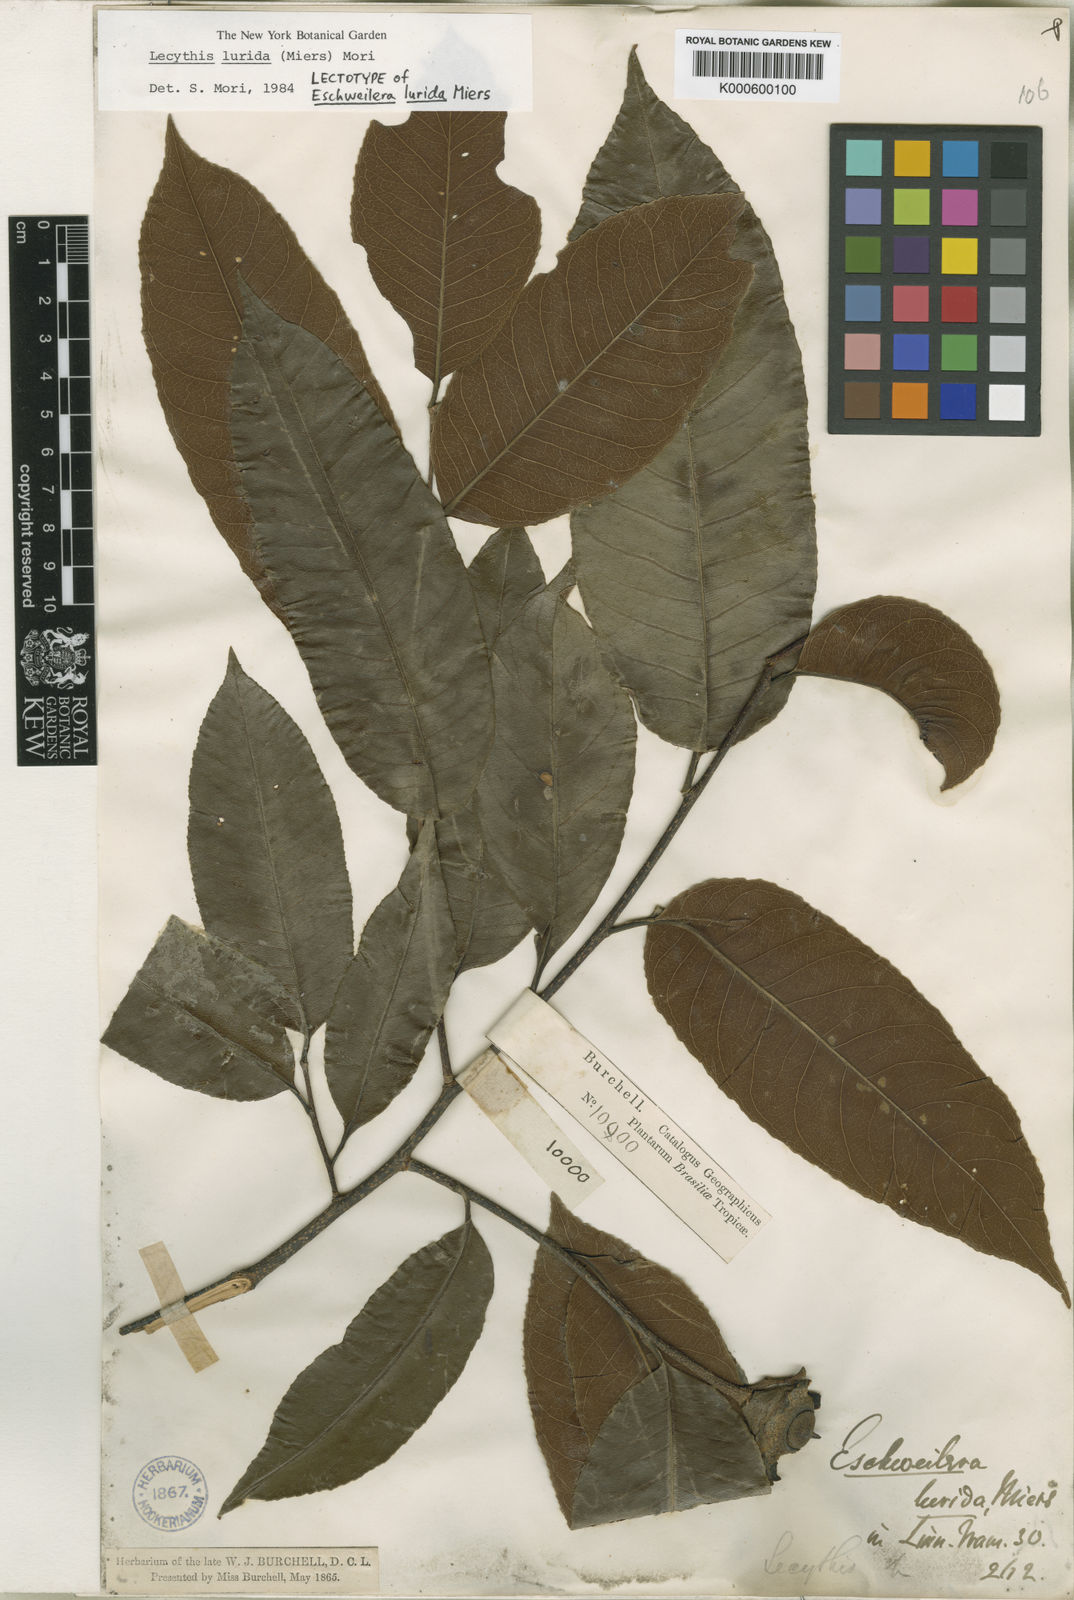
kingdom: Plantae
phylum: Tracheophyta
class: Magnoliopsida
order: Ericales
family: Lecythidaceae
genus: Lecythis
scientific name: Lecythis lurida
